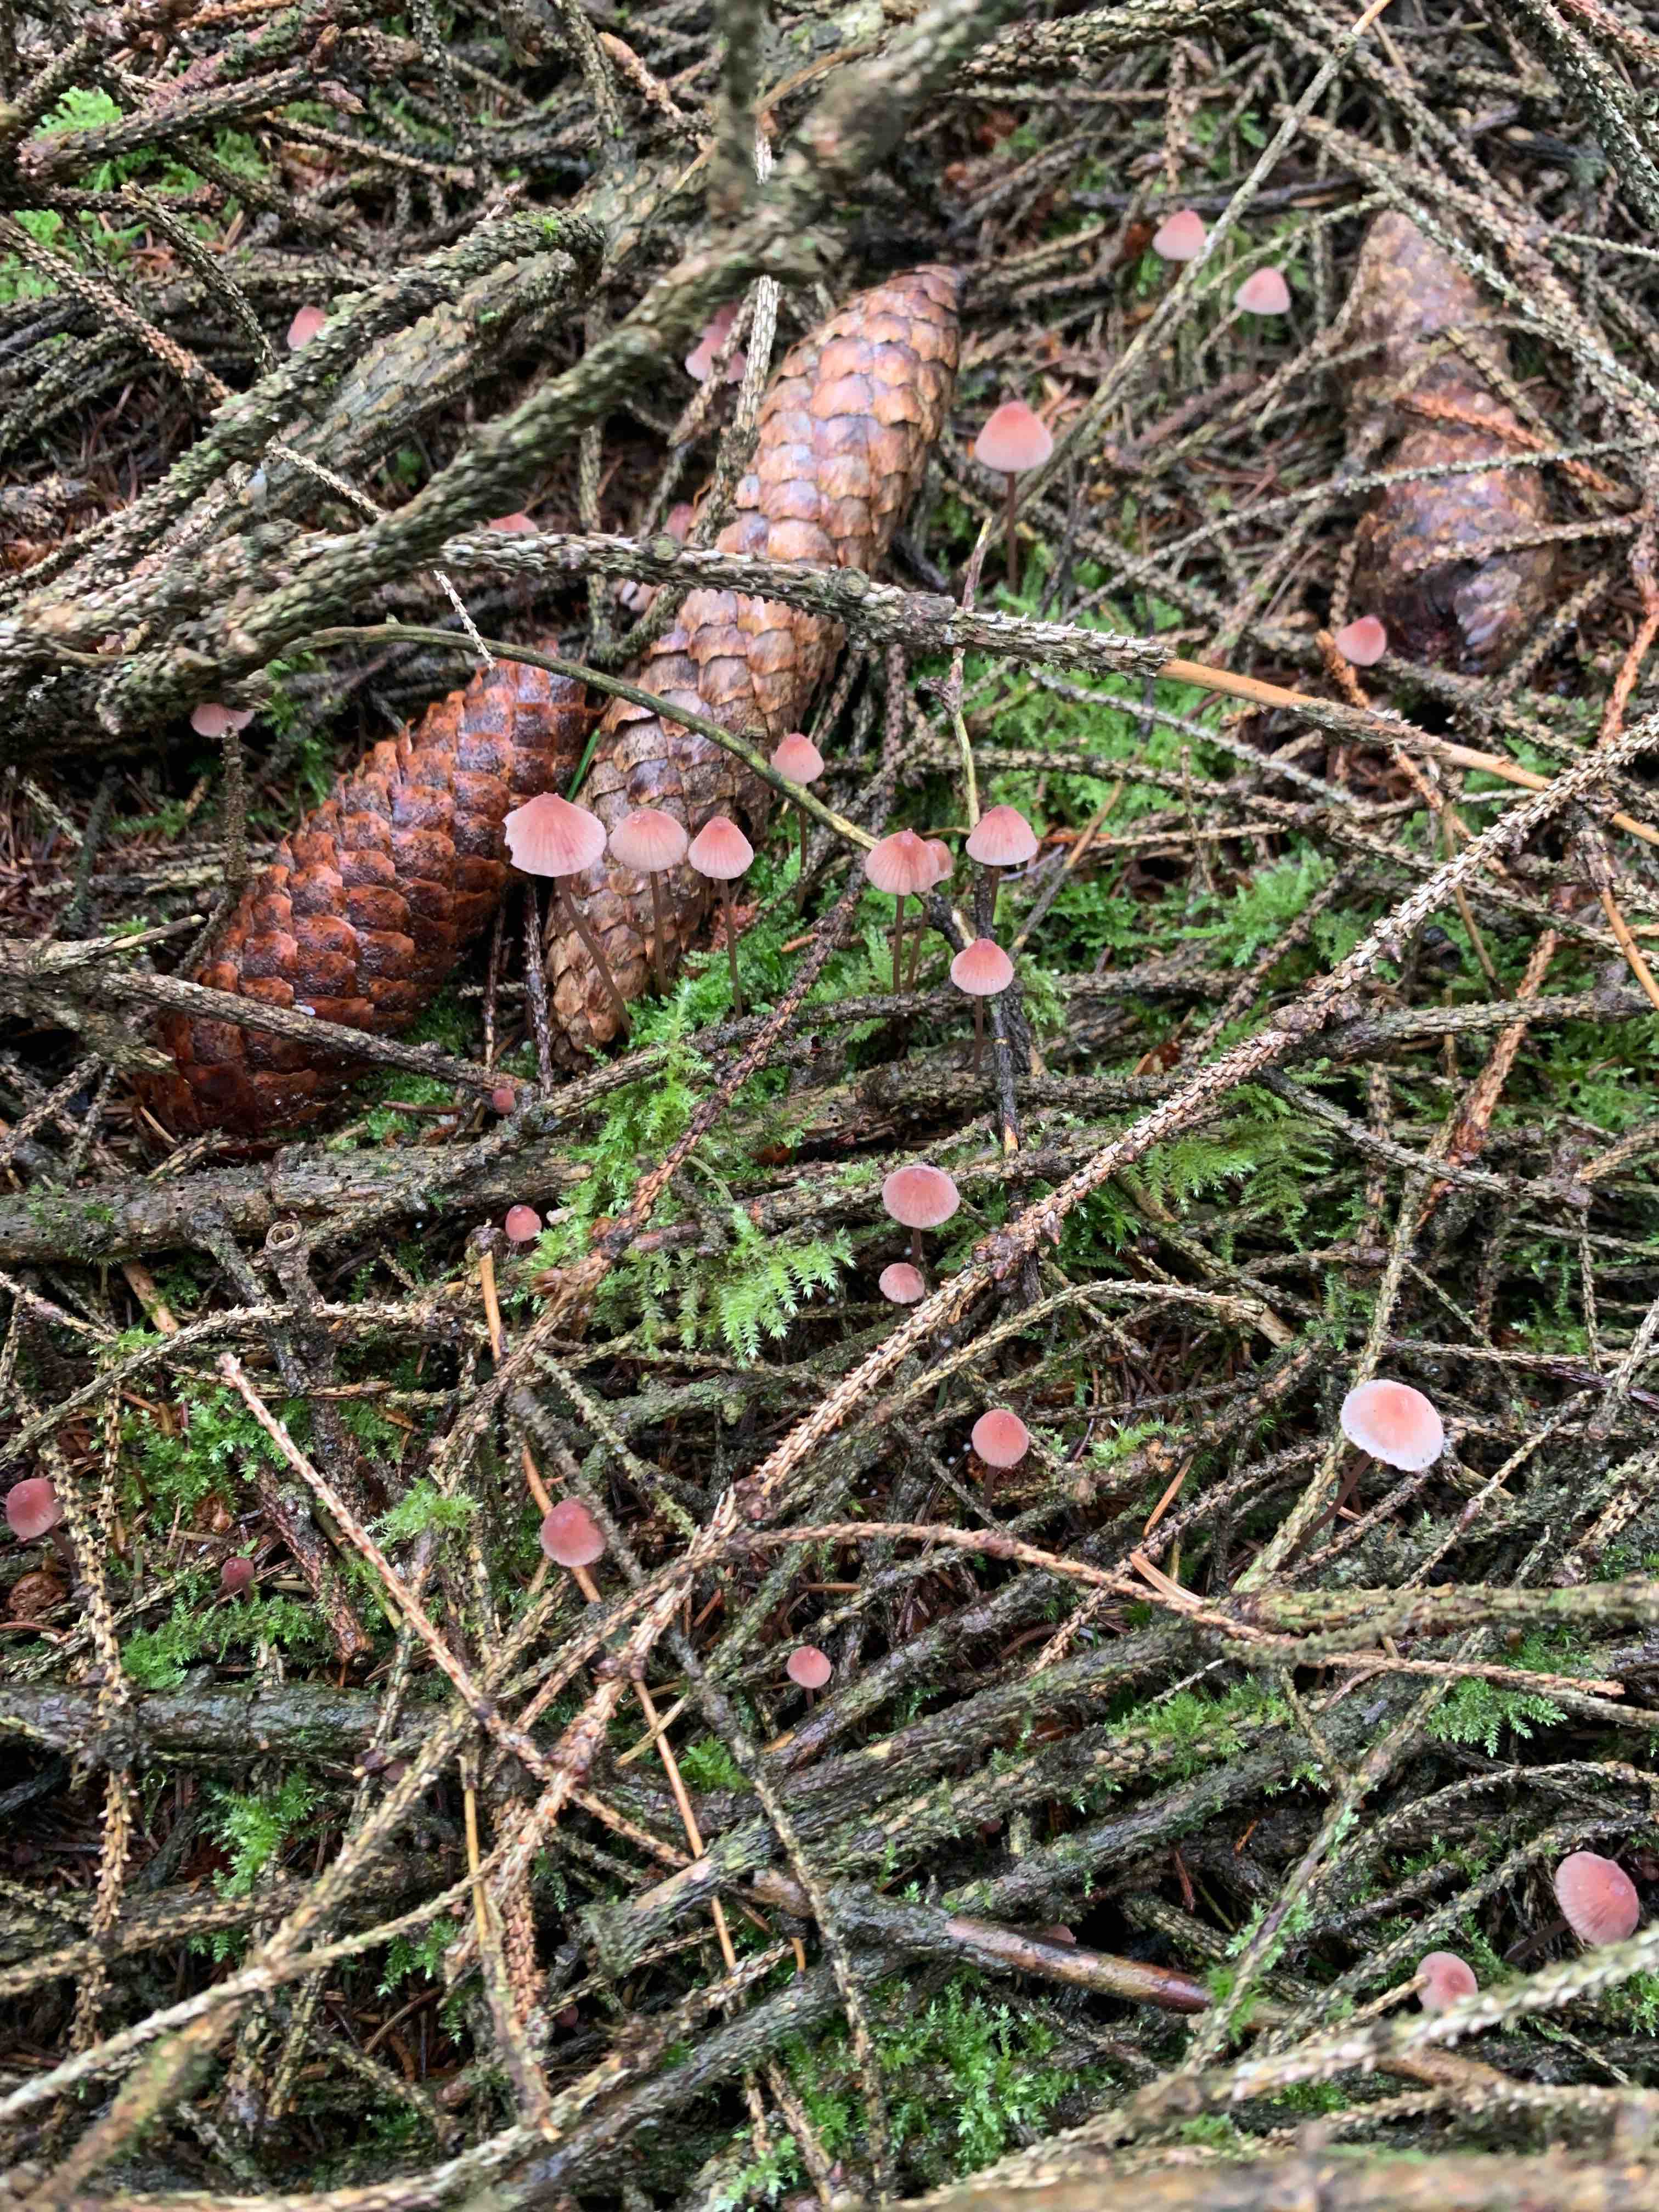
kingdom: Fungi
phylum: Basidiomycota
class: Agaricomycetes
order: Agaricales
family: Mycenaceae
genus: Mycena
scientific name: Mycena rosella
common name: rosenrød huesvamp
